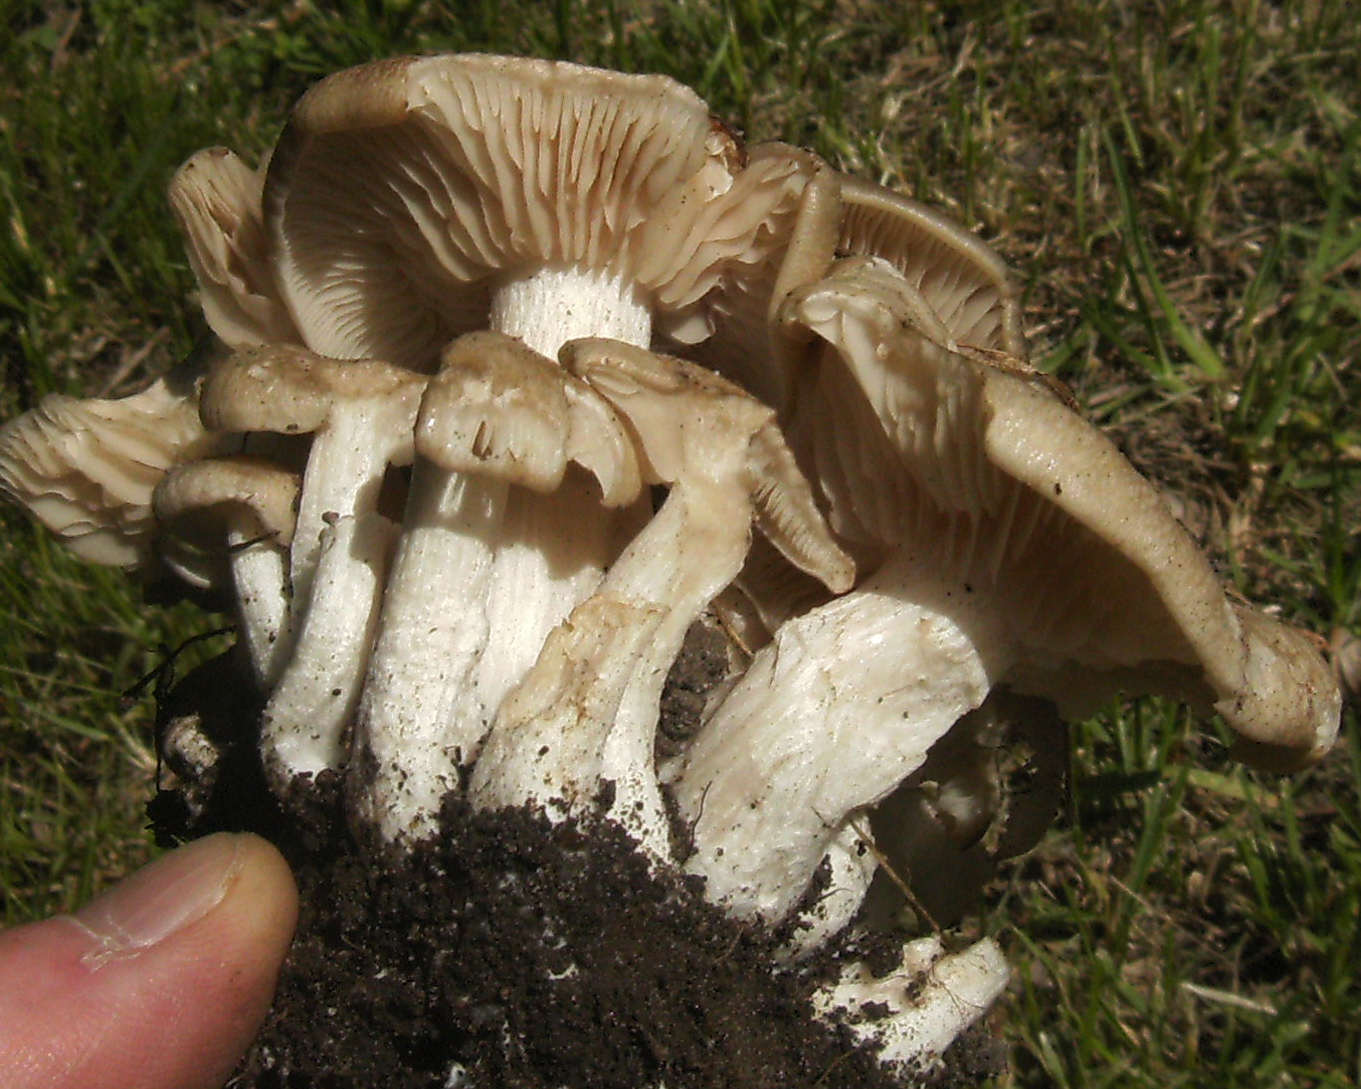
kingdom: Fungi
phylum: Basidiomycota
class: Agaricomycetes
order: Agaricales
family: Entolomataceae
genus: Entoloma
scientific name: Entoloma clypeatum
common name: flammet rødblad
